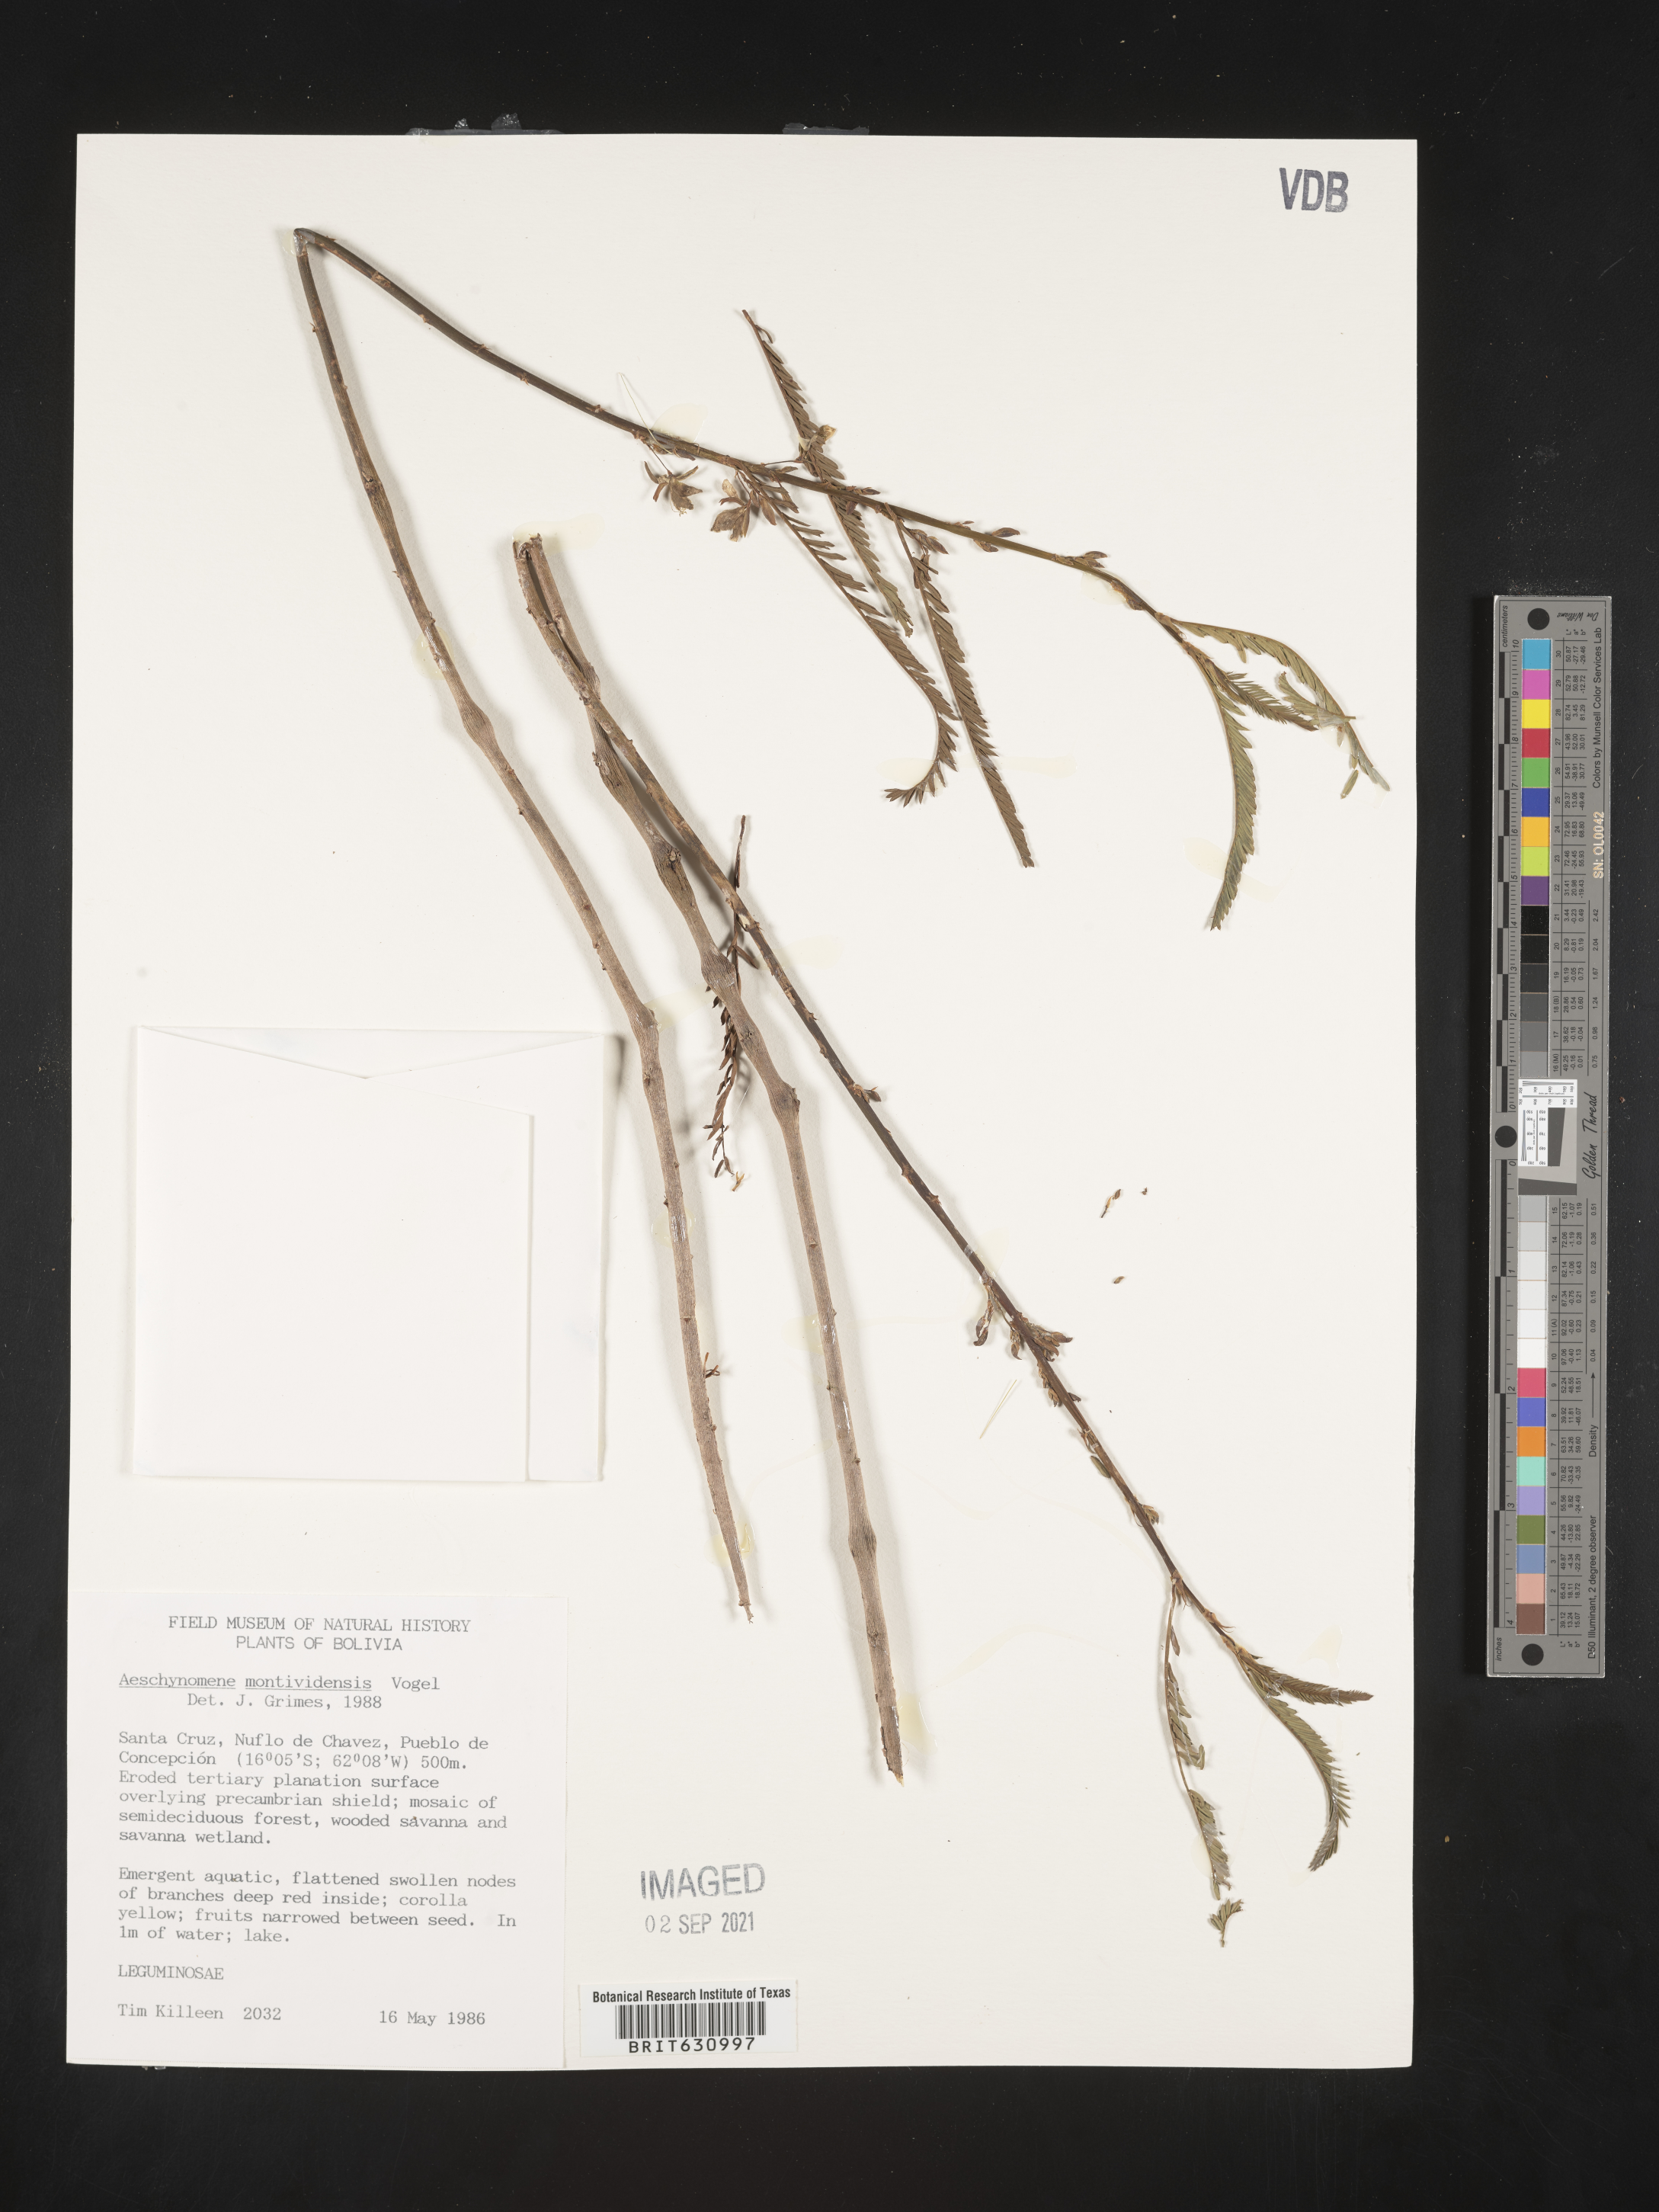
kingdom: Plantae
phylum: Tracheophyta
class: Magnoliopsida
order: Fabales
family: Fabaceae
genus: Aeschynomene
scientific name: Aeschynomene
